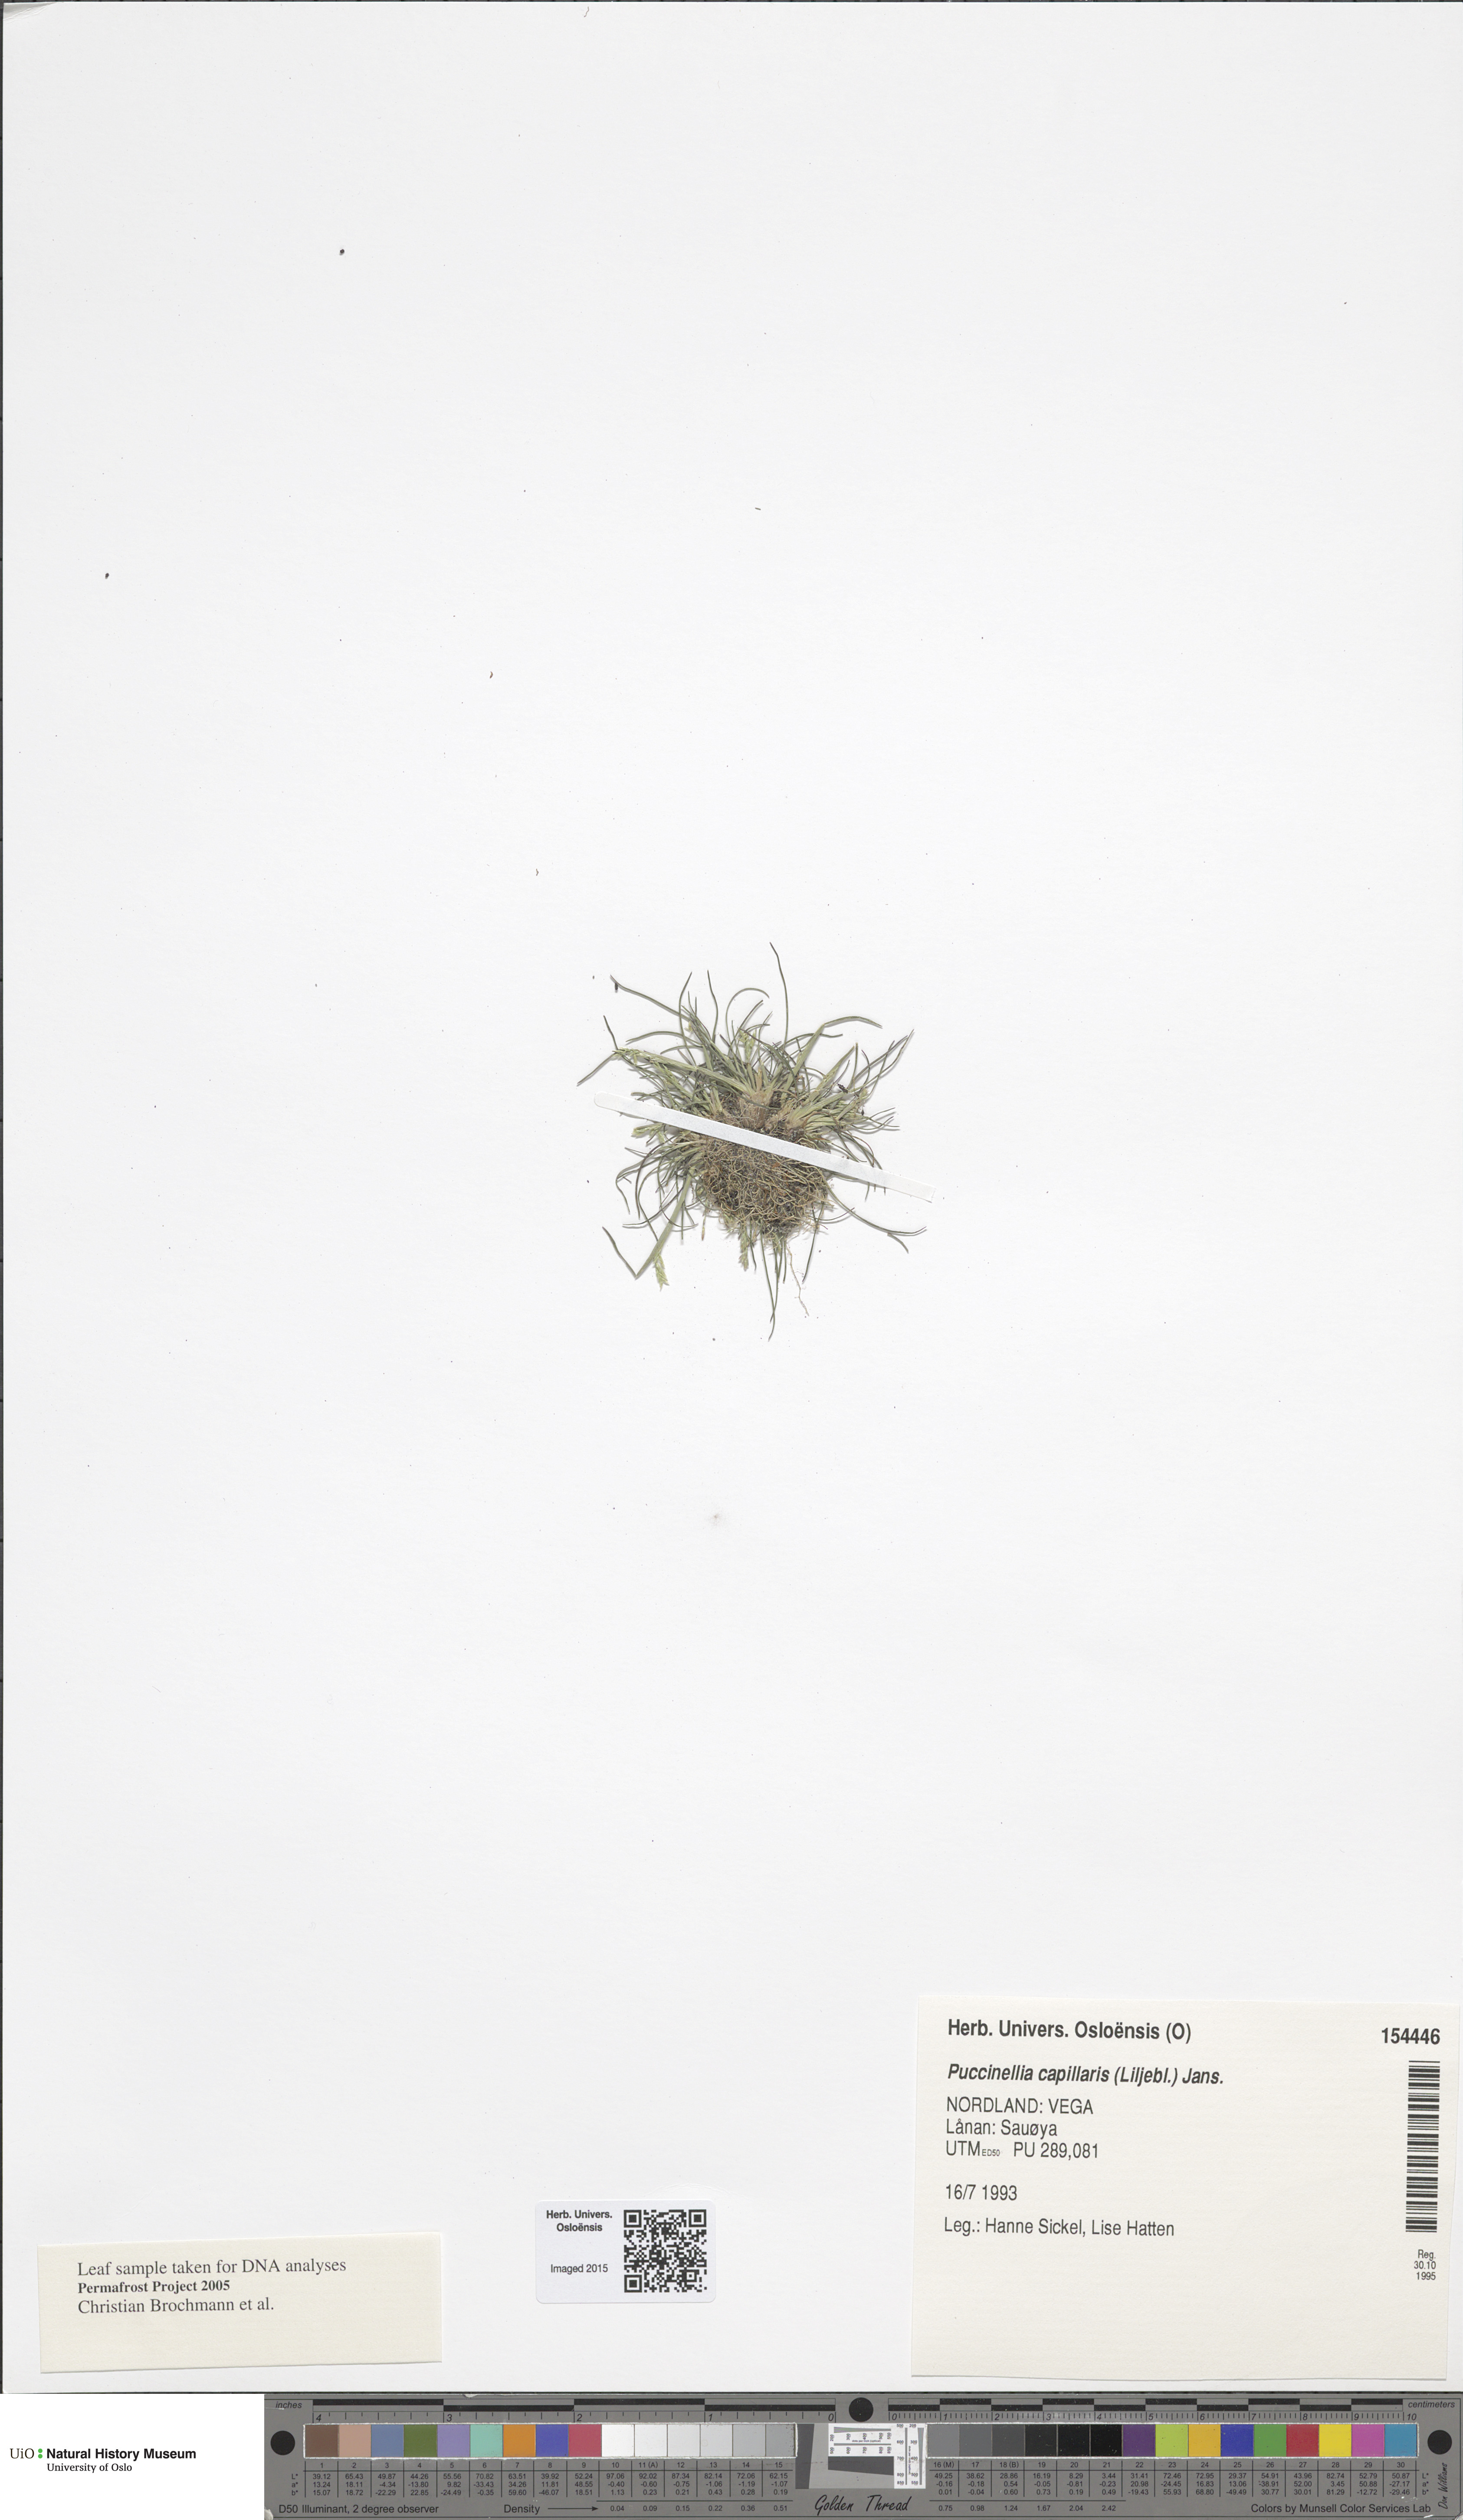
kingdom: Plantae
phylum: Tracheophyta
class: Liliopsida
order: Poales
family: Poaceae
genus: Puccinellia
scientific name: Puccinellia distans
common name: Weeping alkaligrass
